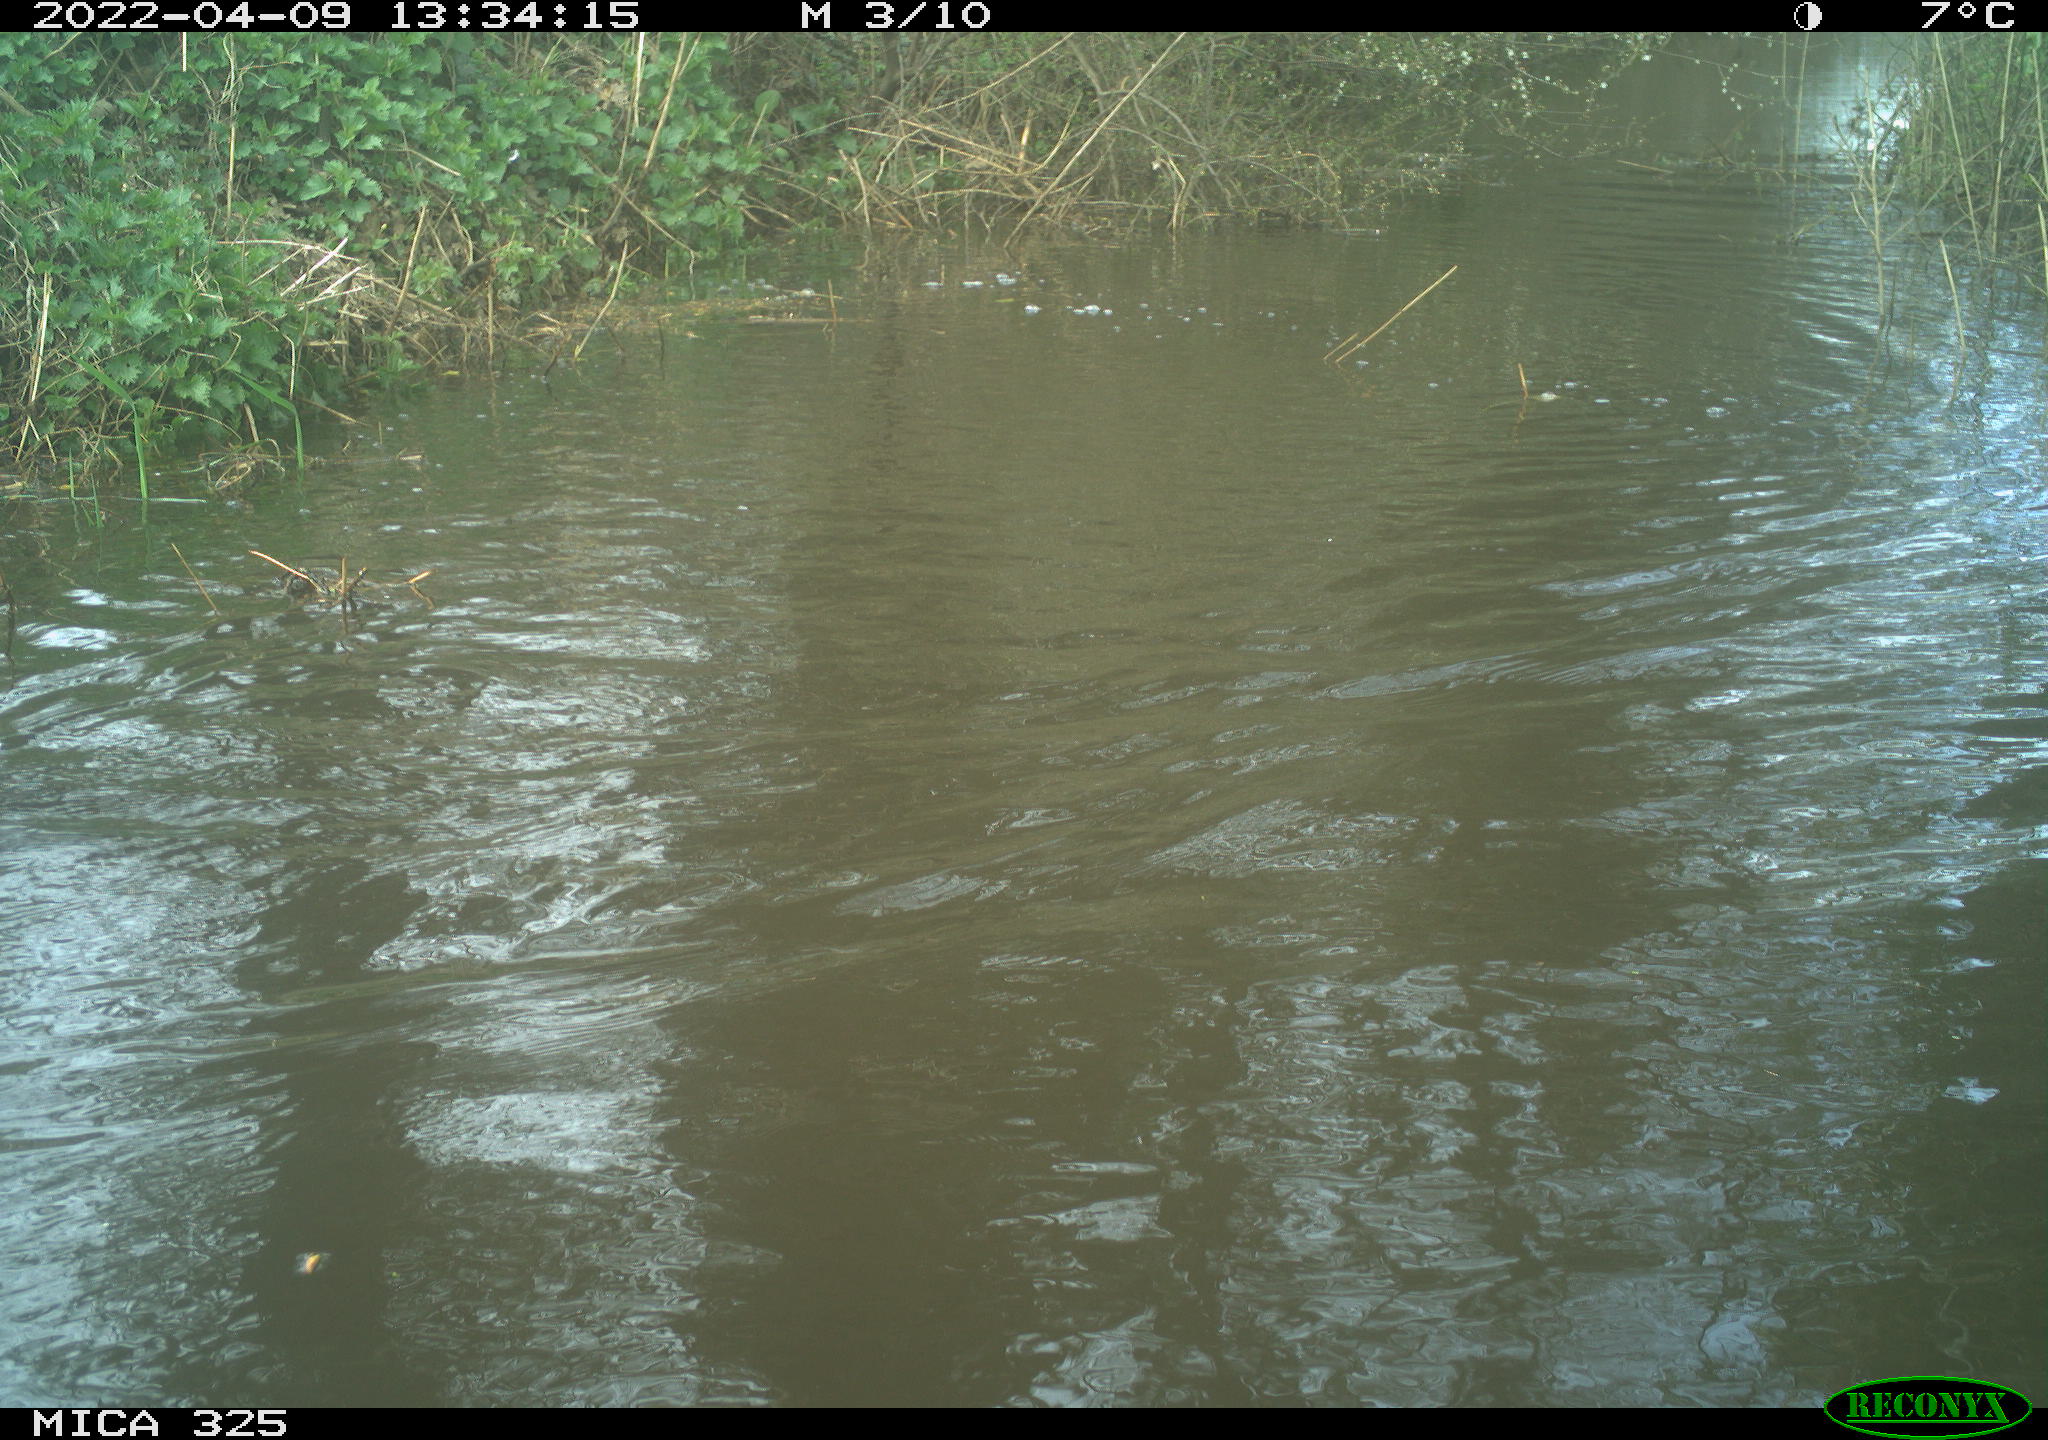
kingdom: Animalia
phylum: Chordata
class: Aves
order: Anseriformes
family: Anatidae
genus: Anas
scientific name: Anas platyrhynchos
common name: Mallard
